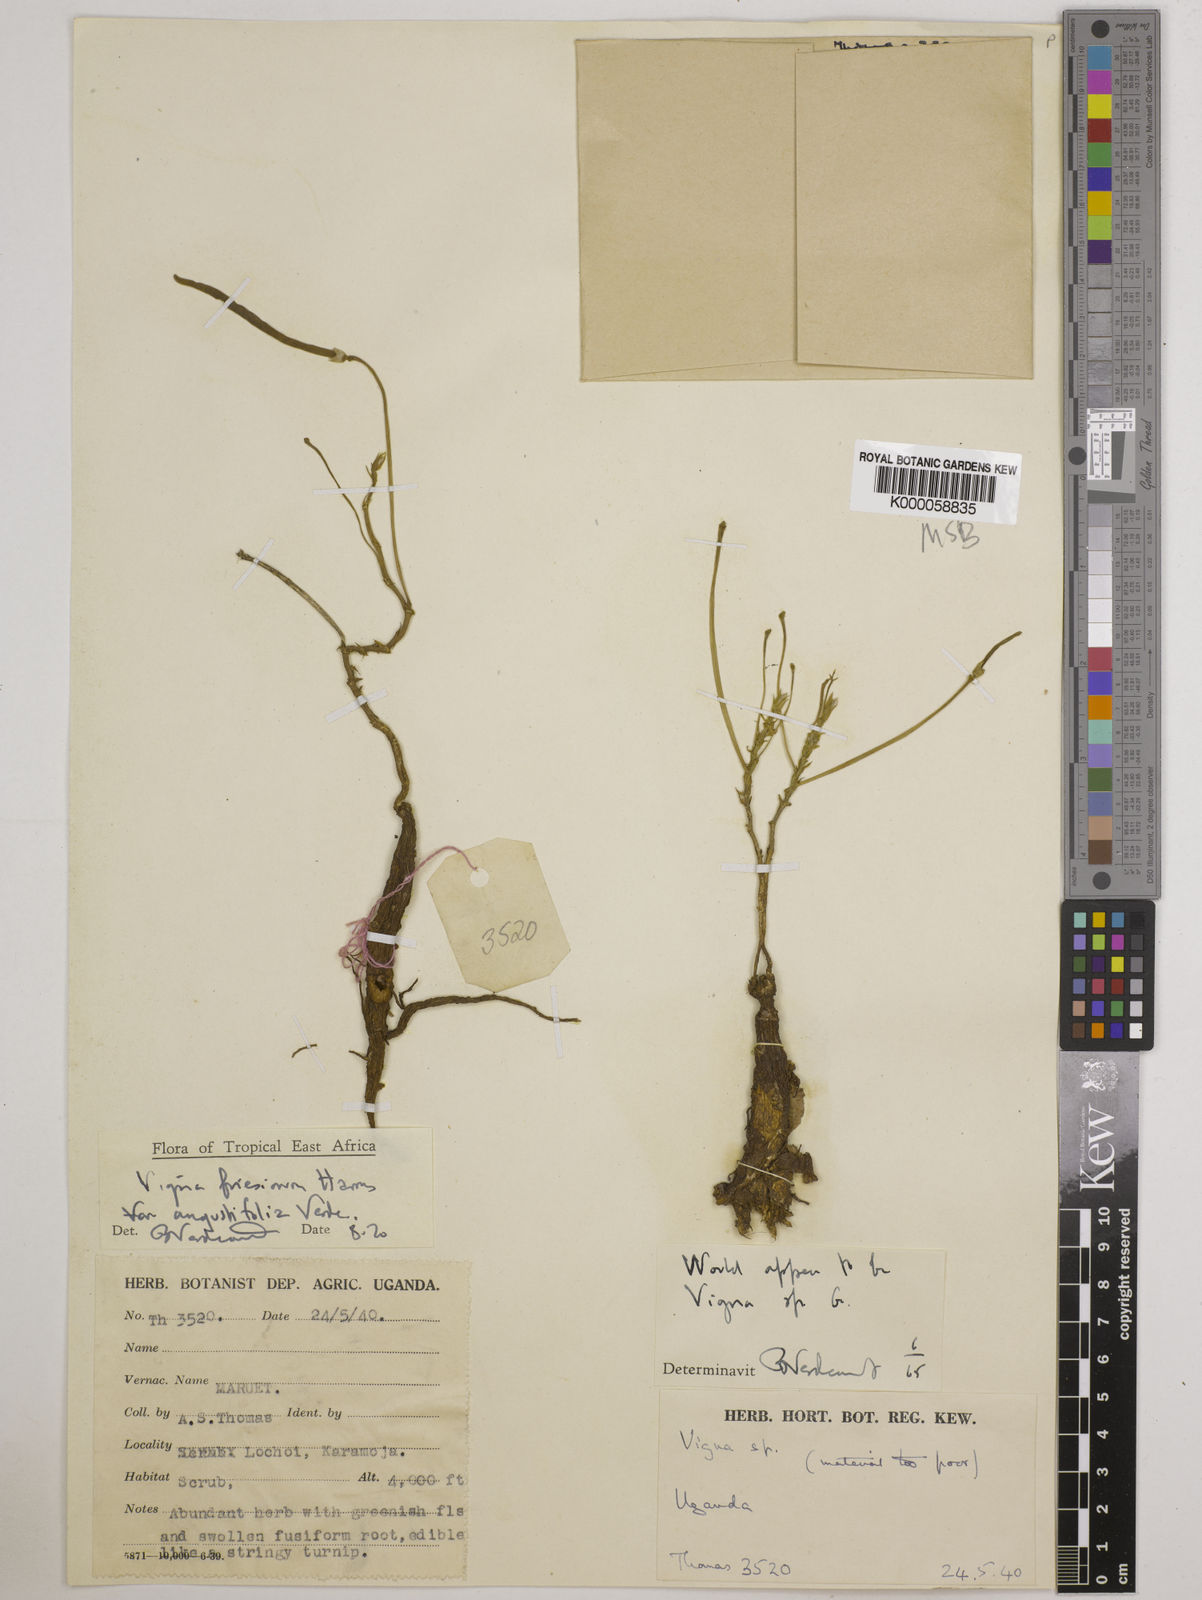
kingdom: Plantae
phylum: Tracheophyta
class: Magnoliopsida
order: Fabales
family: Fabaceae
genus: Vigna
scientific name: Vigna
